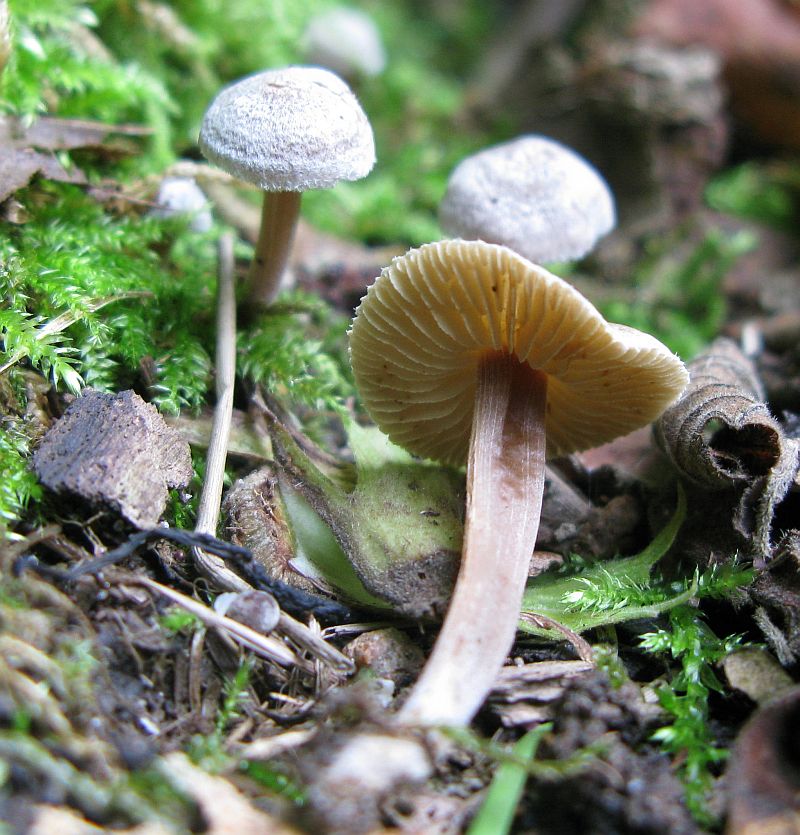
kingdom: Fungi
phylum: Basidiomycota
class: Agaricomycetes
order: Agaricales
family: Inocybaceae
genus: Inocybe
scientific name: Inocybe petiginosa
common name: liden trævlhat
